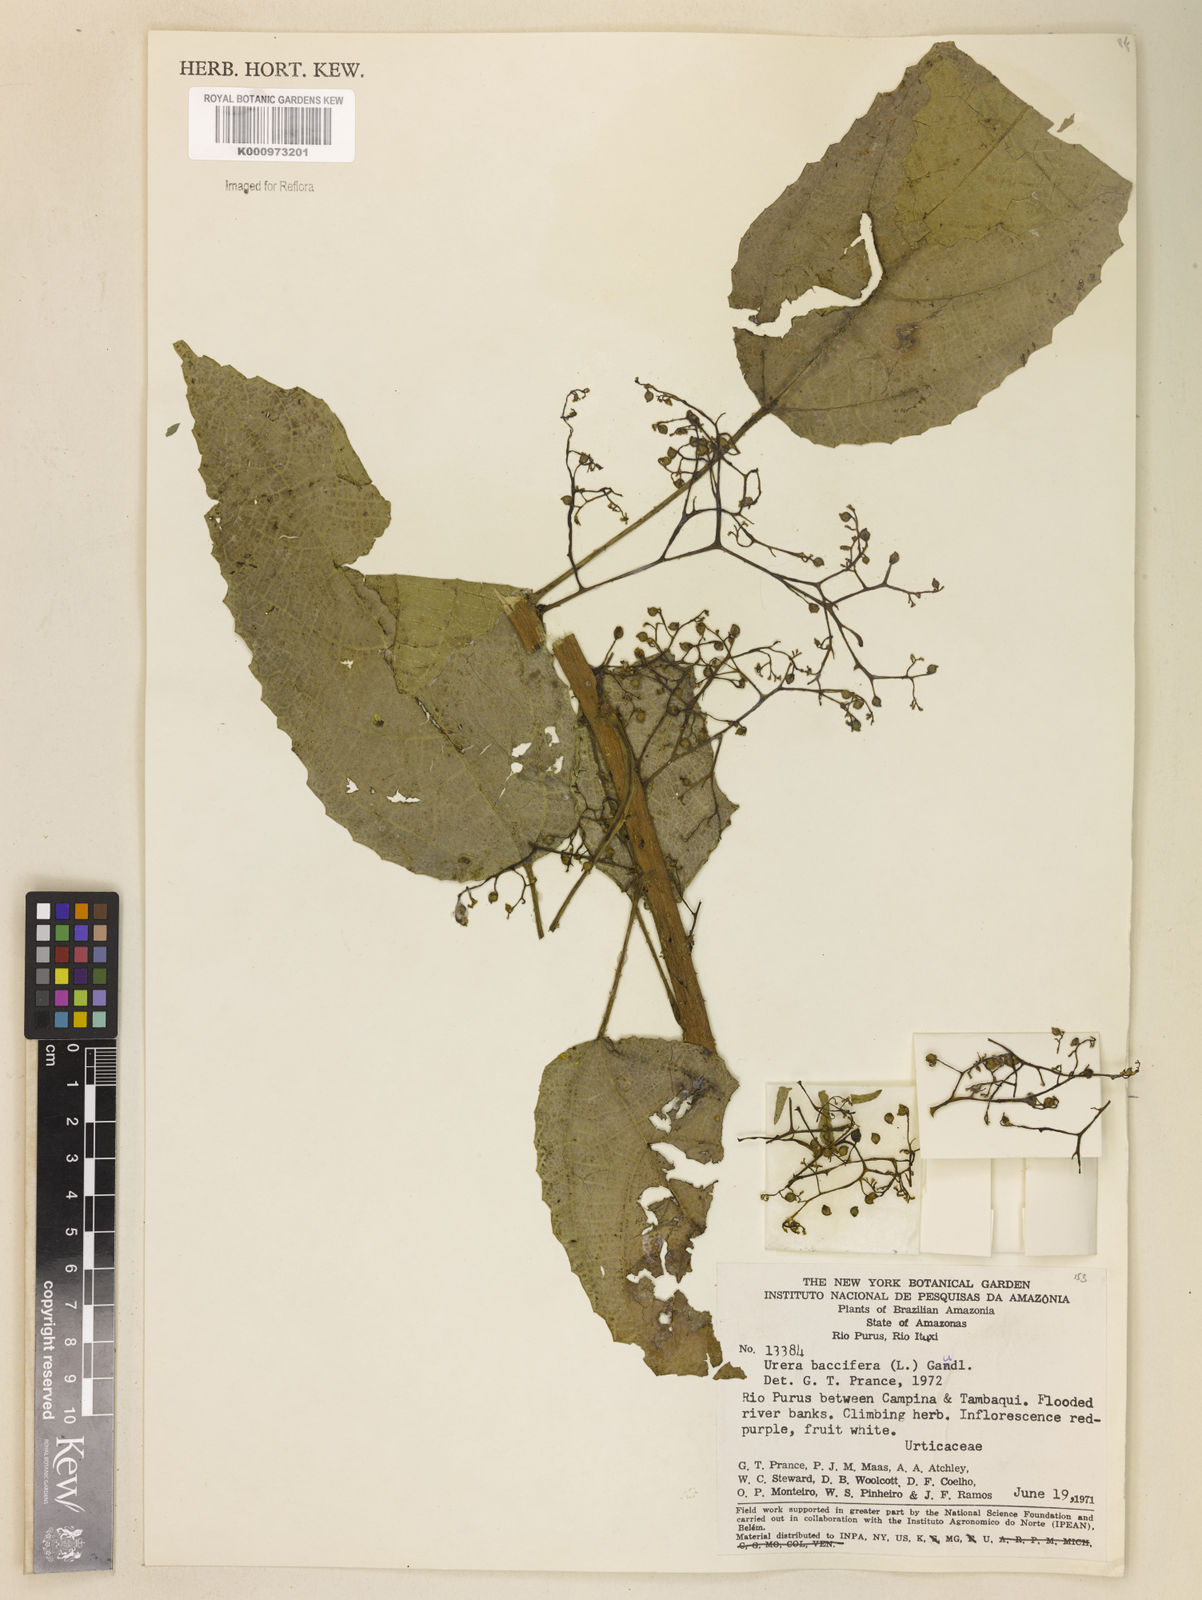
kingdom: Plantae
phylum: Tracheophyta
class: Magnoliopsida
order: Rosales
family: Urticaceae
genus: Urera
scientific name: Urera baccifera
